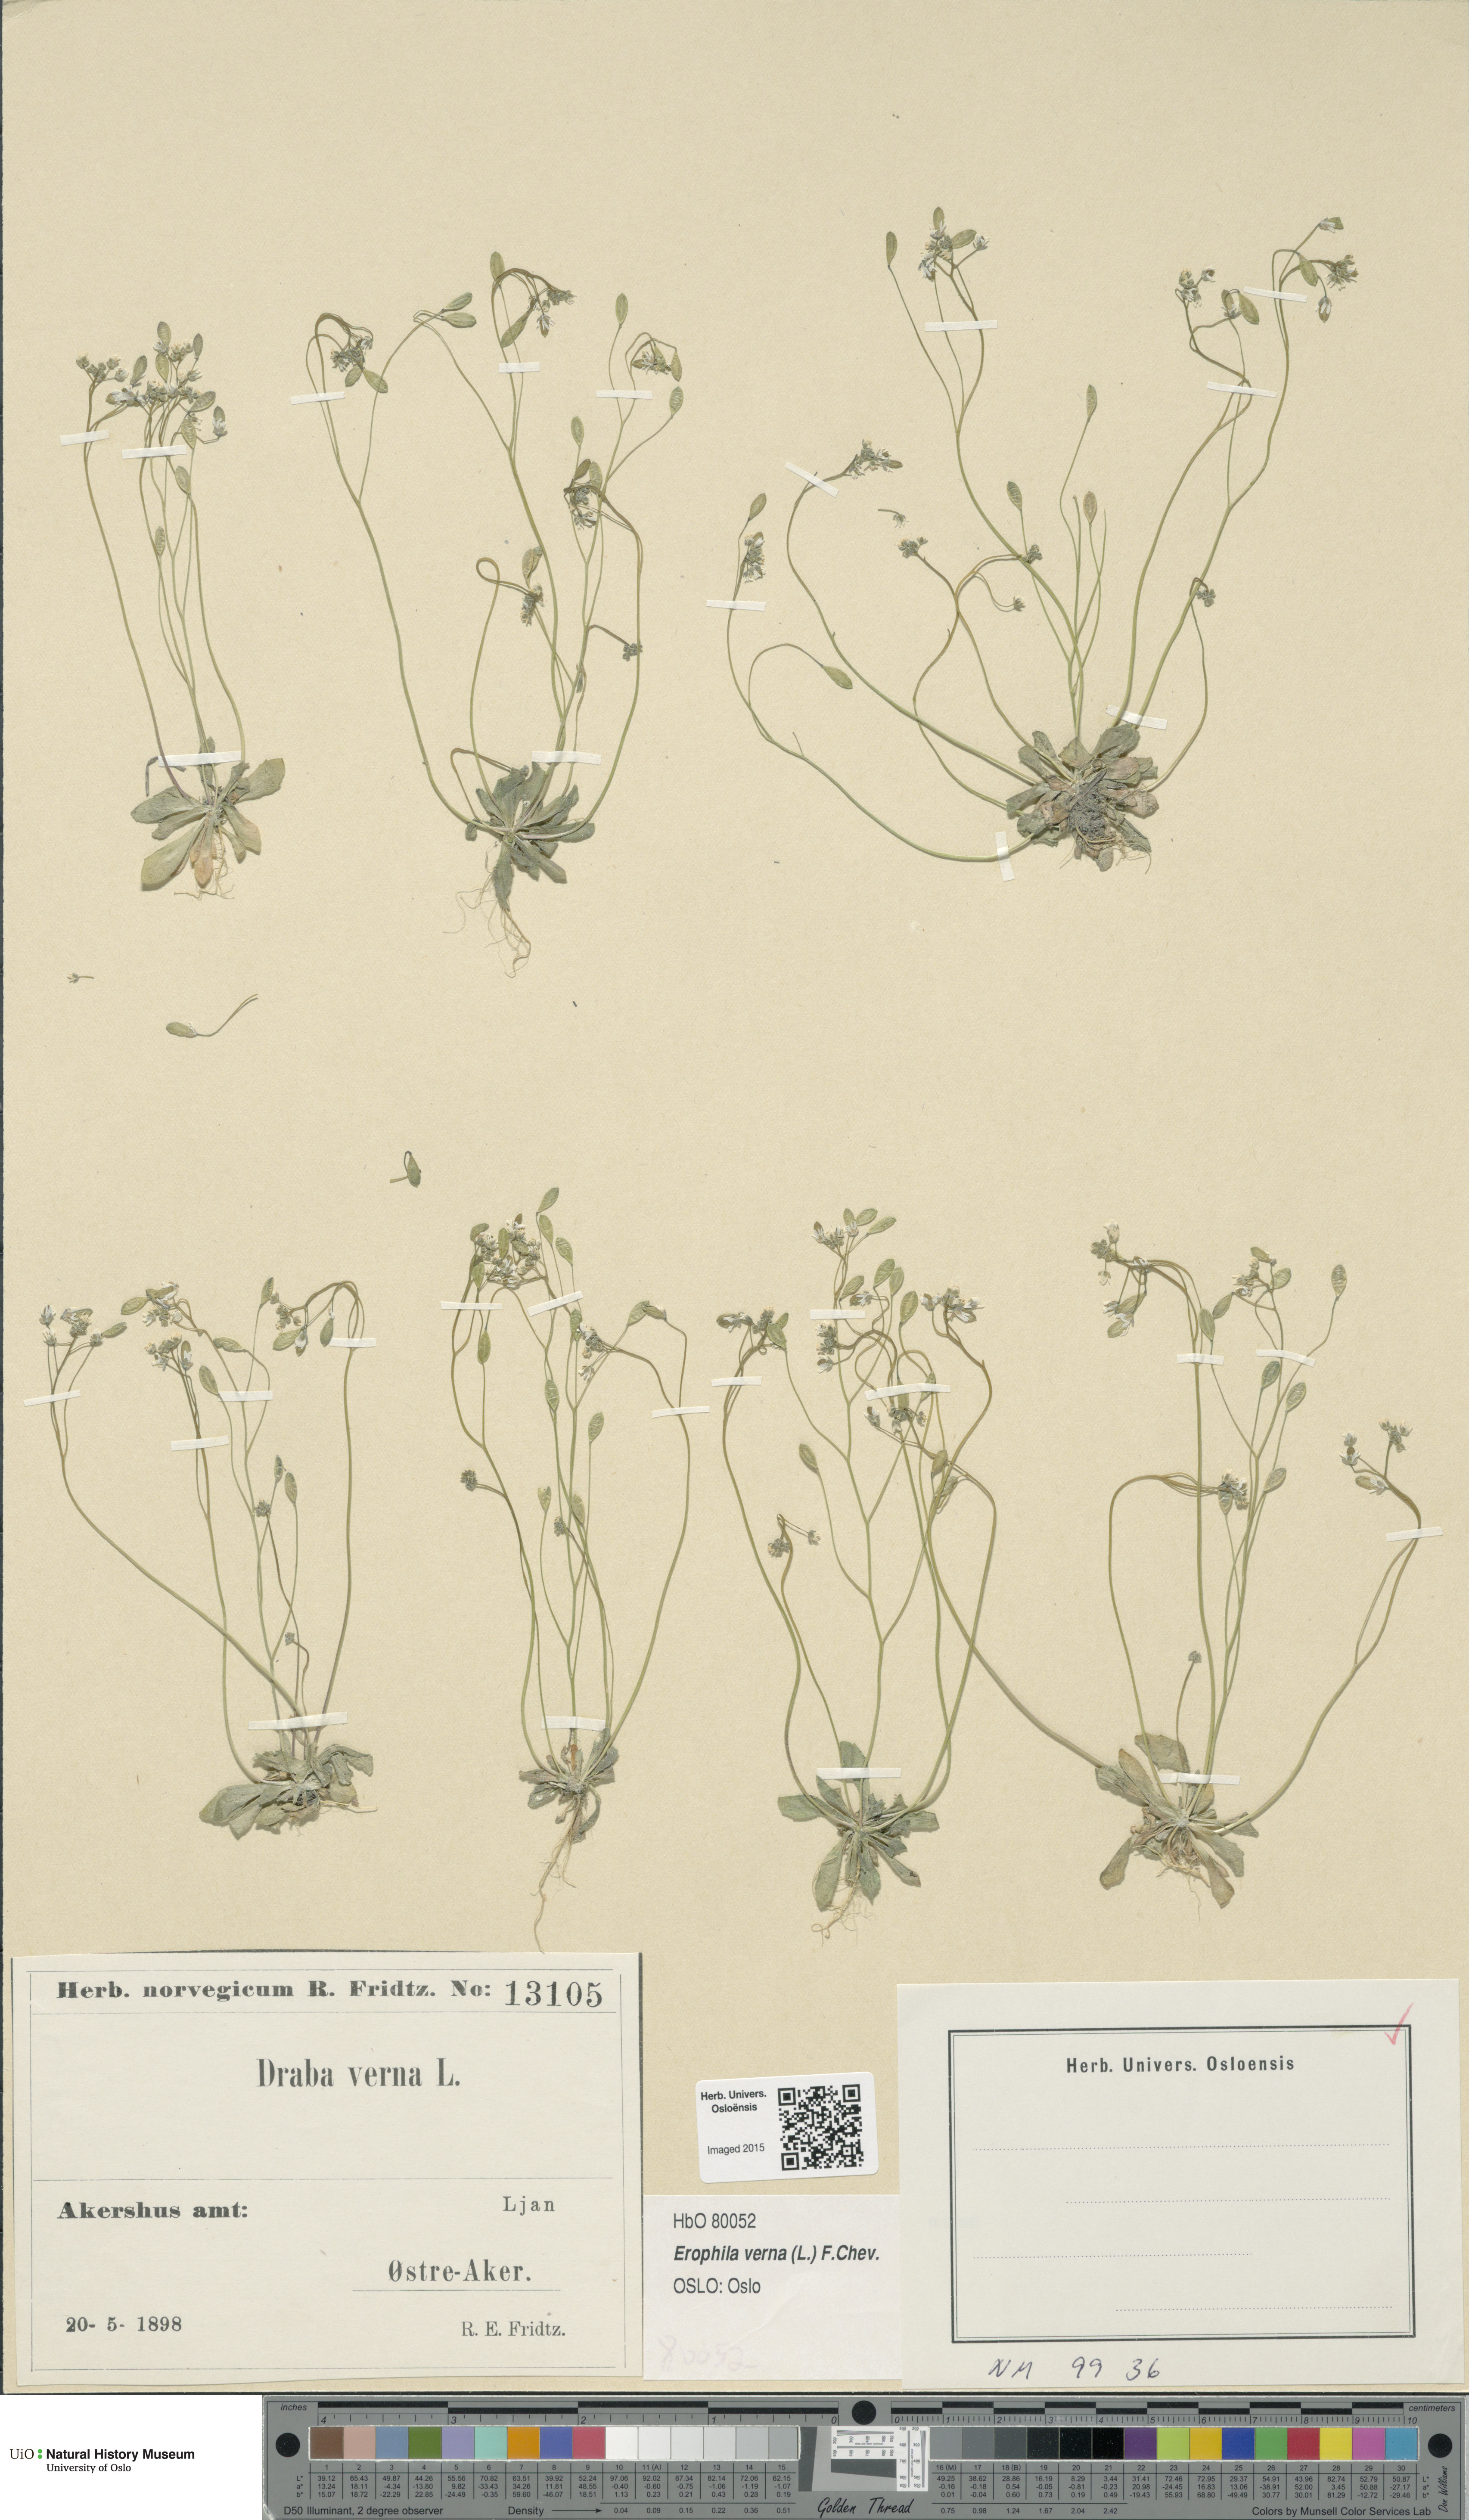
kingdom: Plantae
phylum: Tracheophyta
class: Magnoliopsida
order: Brassicales
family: Brassicaceae
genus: Draba
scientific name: Draba verna
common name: Spring draba
